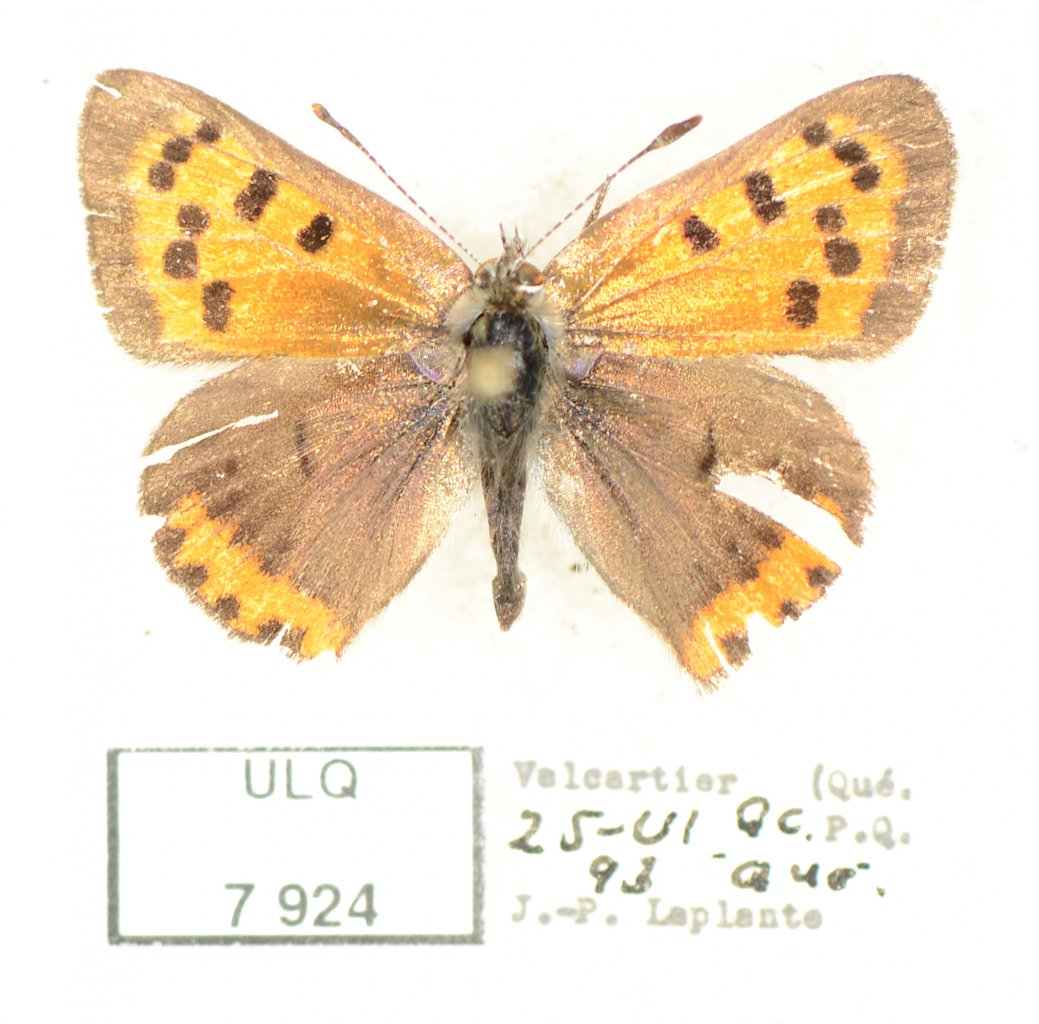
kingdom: Animalia
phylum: Arthropoda
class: Insecta
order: Lepidoptera
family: Lycaenidae
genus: Lycaena
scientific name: Lycaena phlaeas
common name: American Copper
